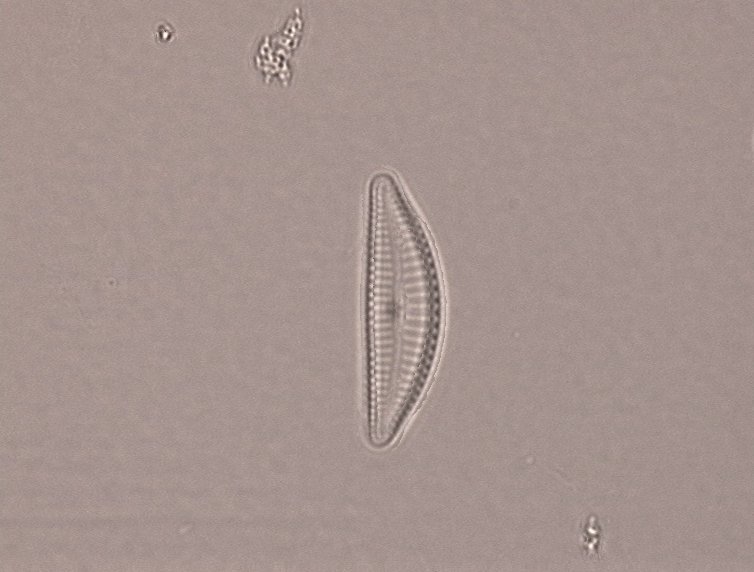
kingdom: Chromista
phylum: Ochrophyta
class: Bacillariophyceae
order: Cymbellales
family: Cymbellaceae
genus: Delicatophycus
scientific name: Delicatophycus delicatulus
